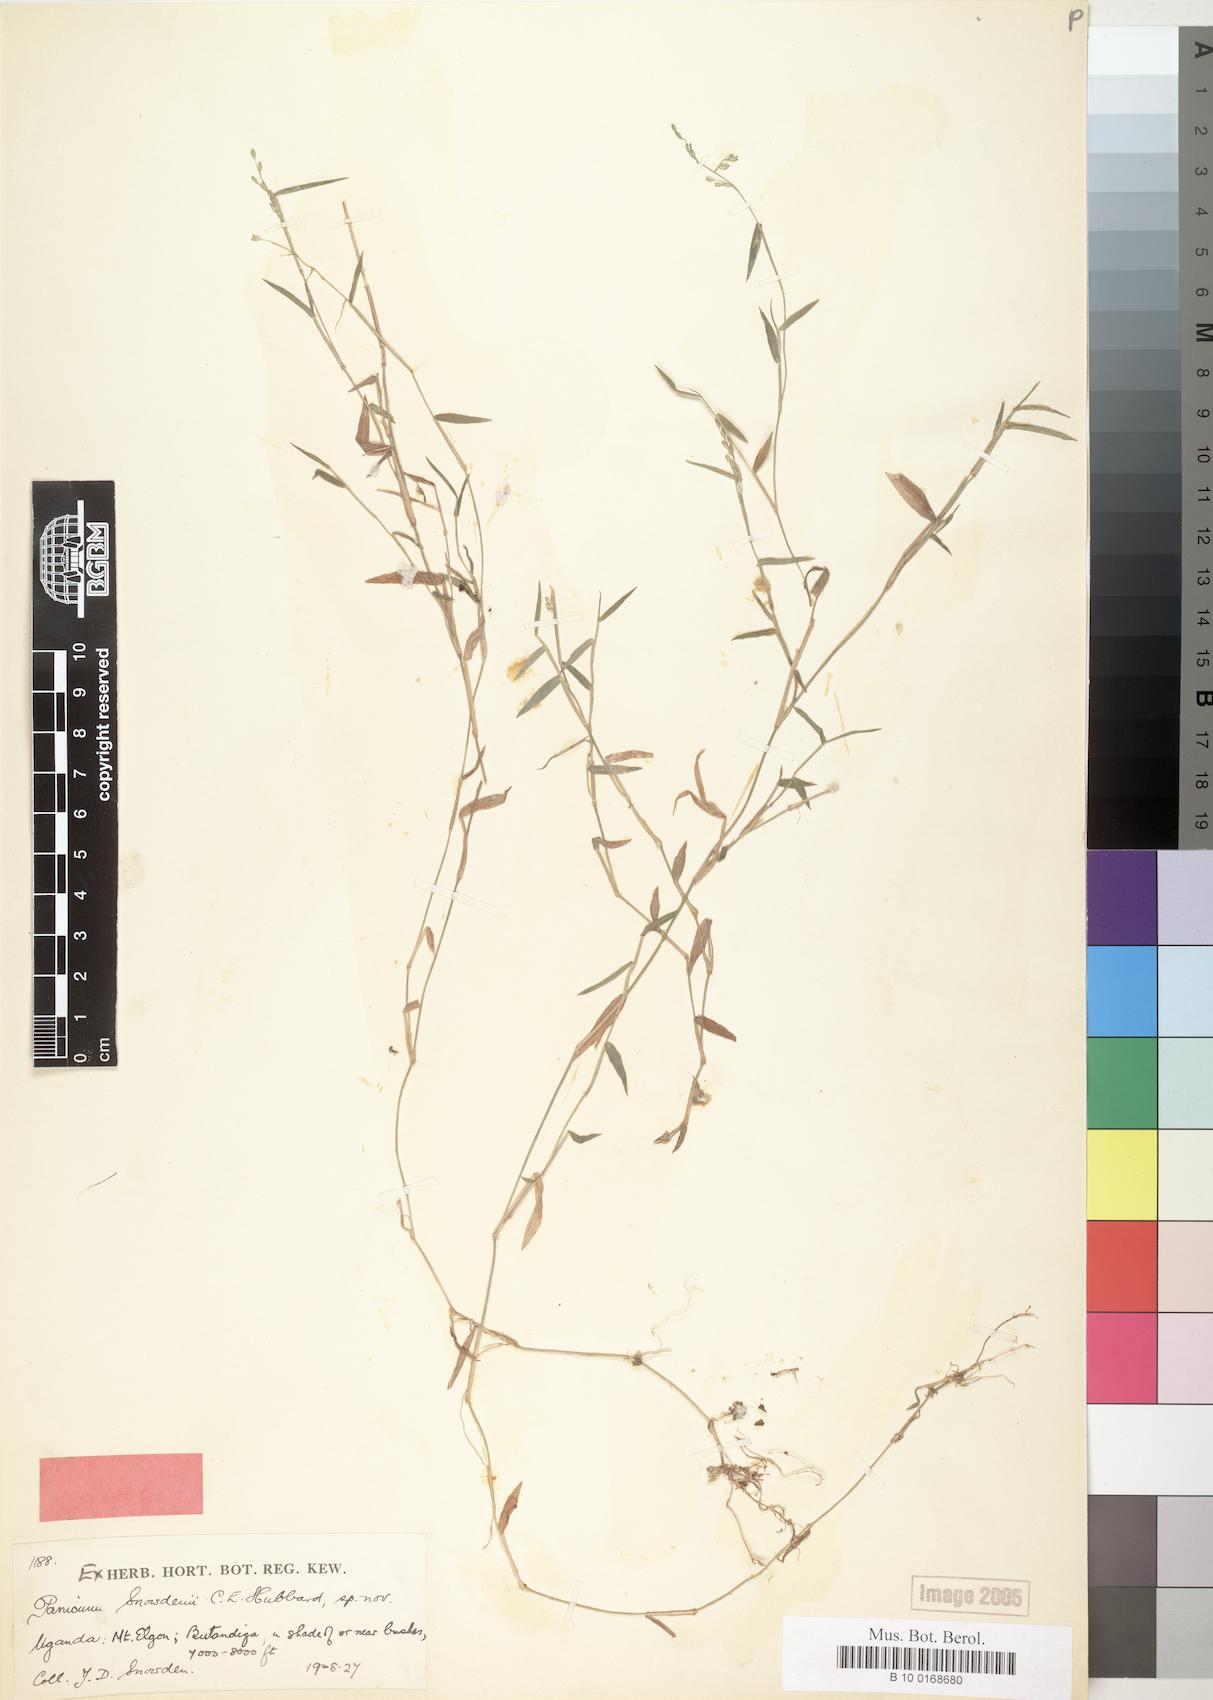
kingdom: Plantae
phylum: Tracheophyta
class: Liliopsida
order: Poales
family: Poaceae
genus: Adenochloa
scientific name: Adenochloa hymeniochila
